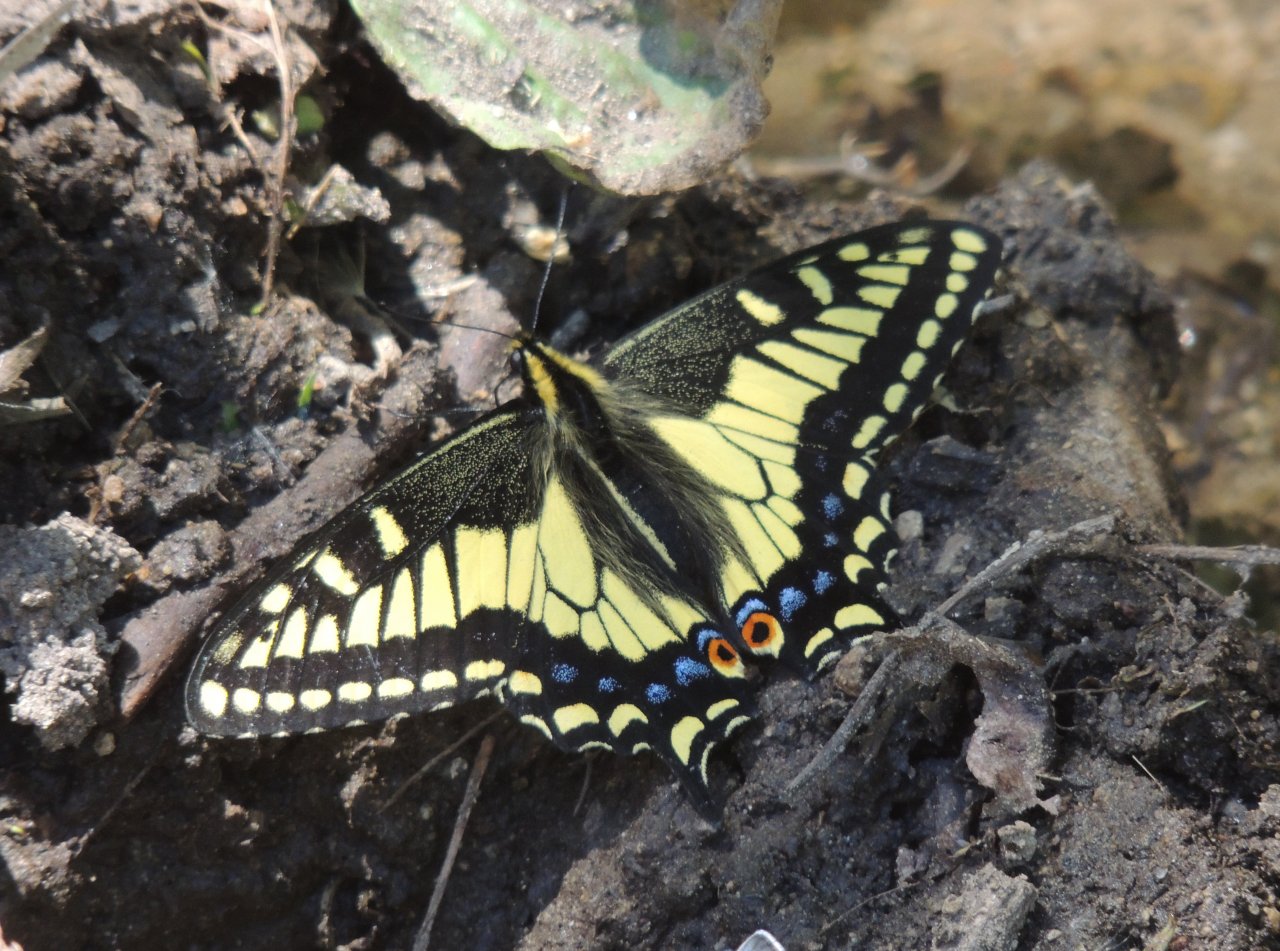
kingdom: Animalia
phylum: Arthropoda
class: Insecta
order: Lepidoptera
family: Papilionidae
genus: Papilio
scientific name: Papilio zelicaon
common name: Anise Swallowtail
